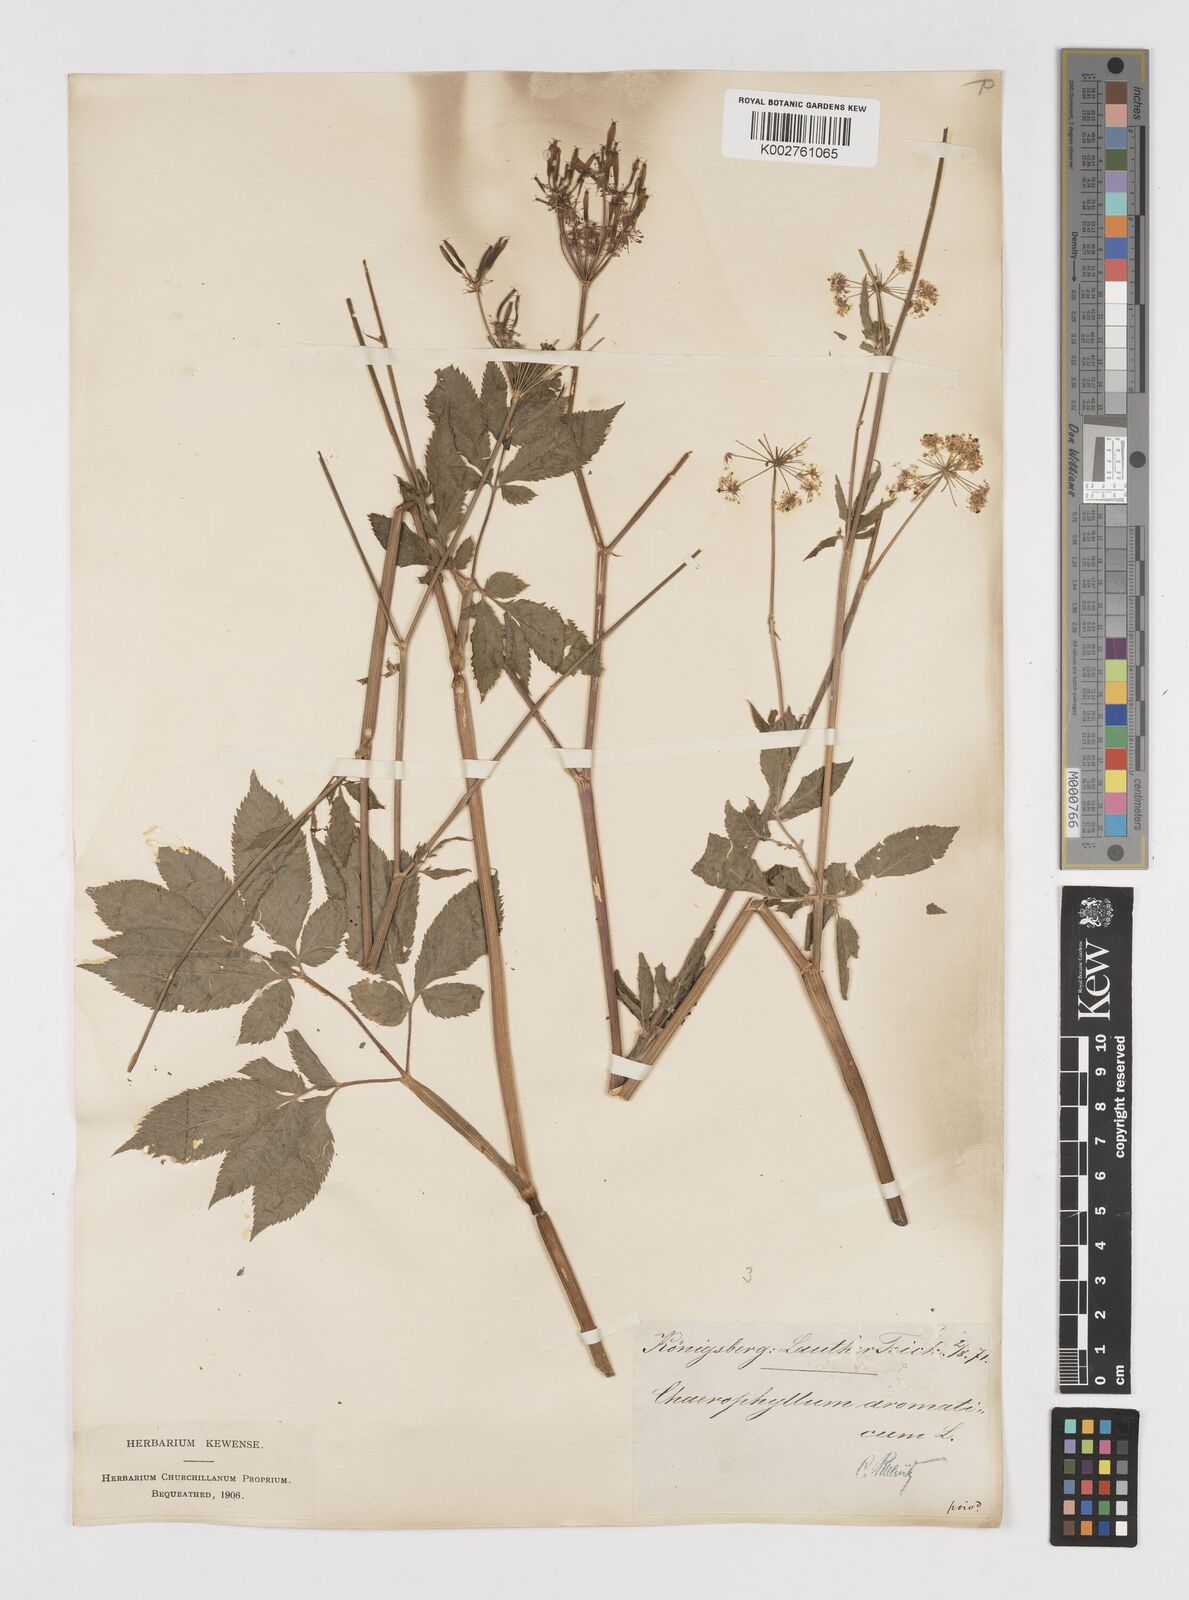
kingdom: Plantae
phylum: Tracheophyta
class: Magnoliopsida
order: Apiales
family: Apiaceae
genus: Chaerophyllum
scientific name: Chaerophyllum aromaticum
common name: Broadleaf chervil
